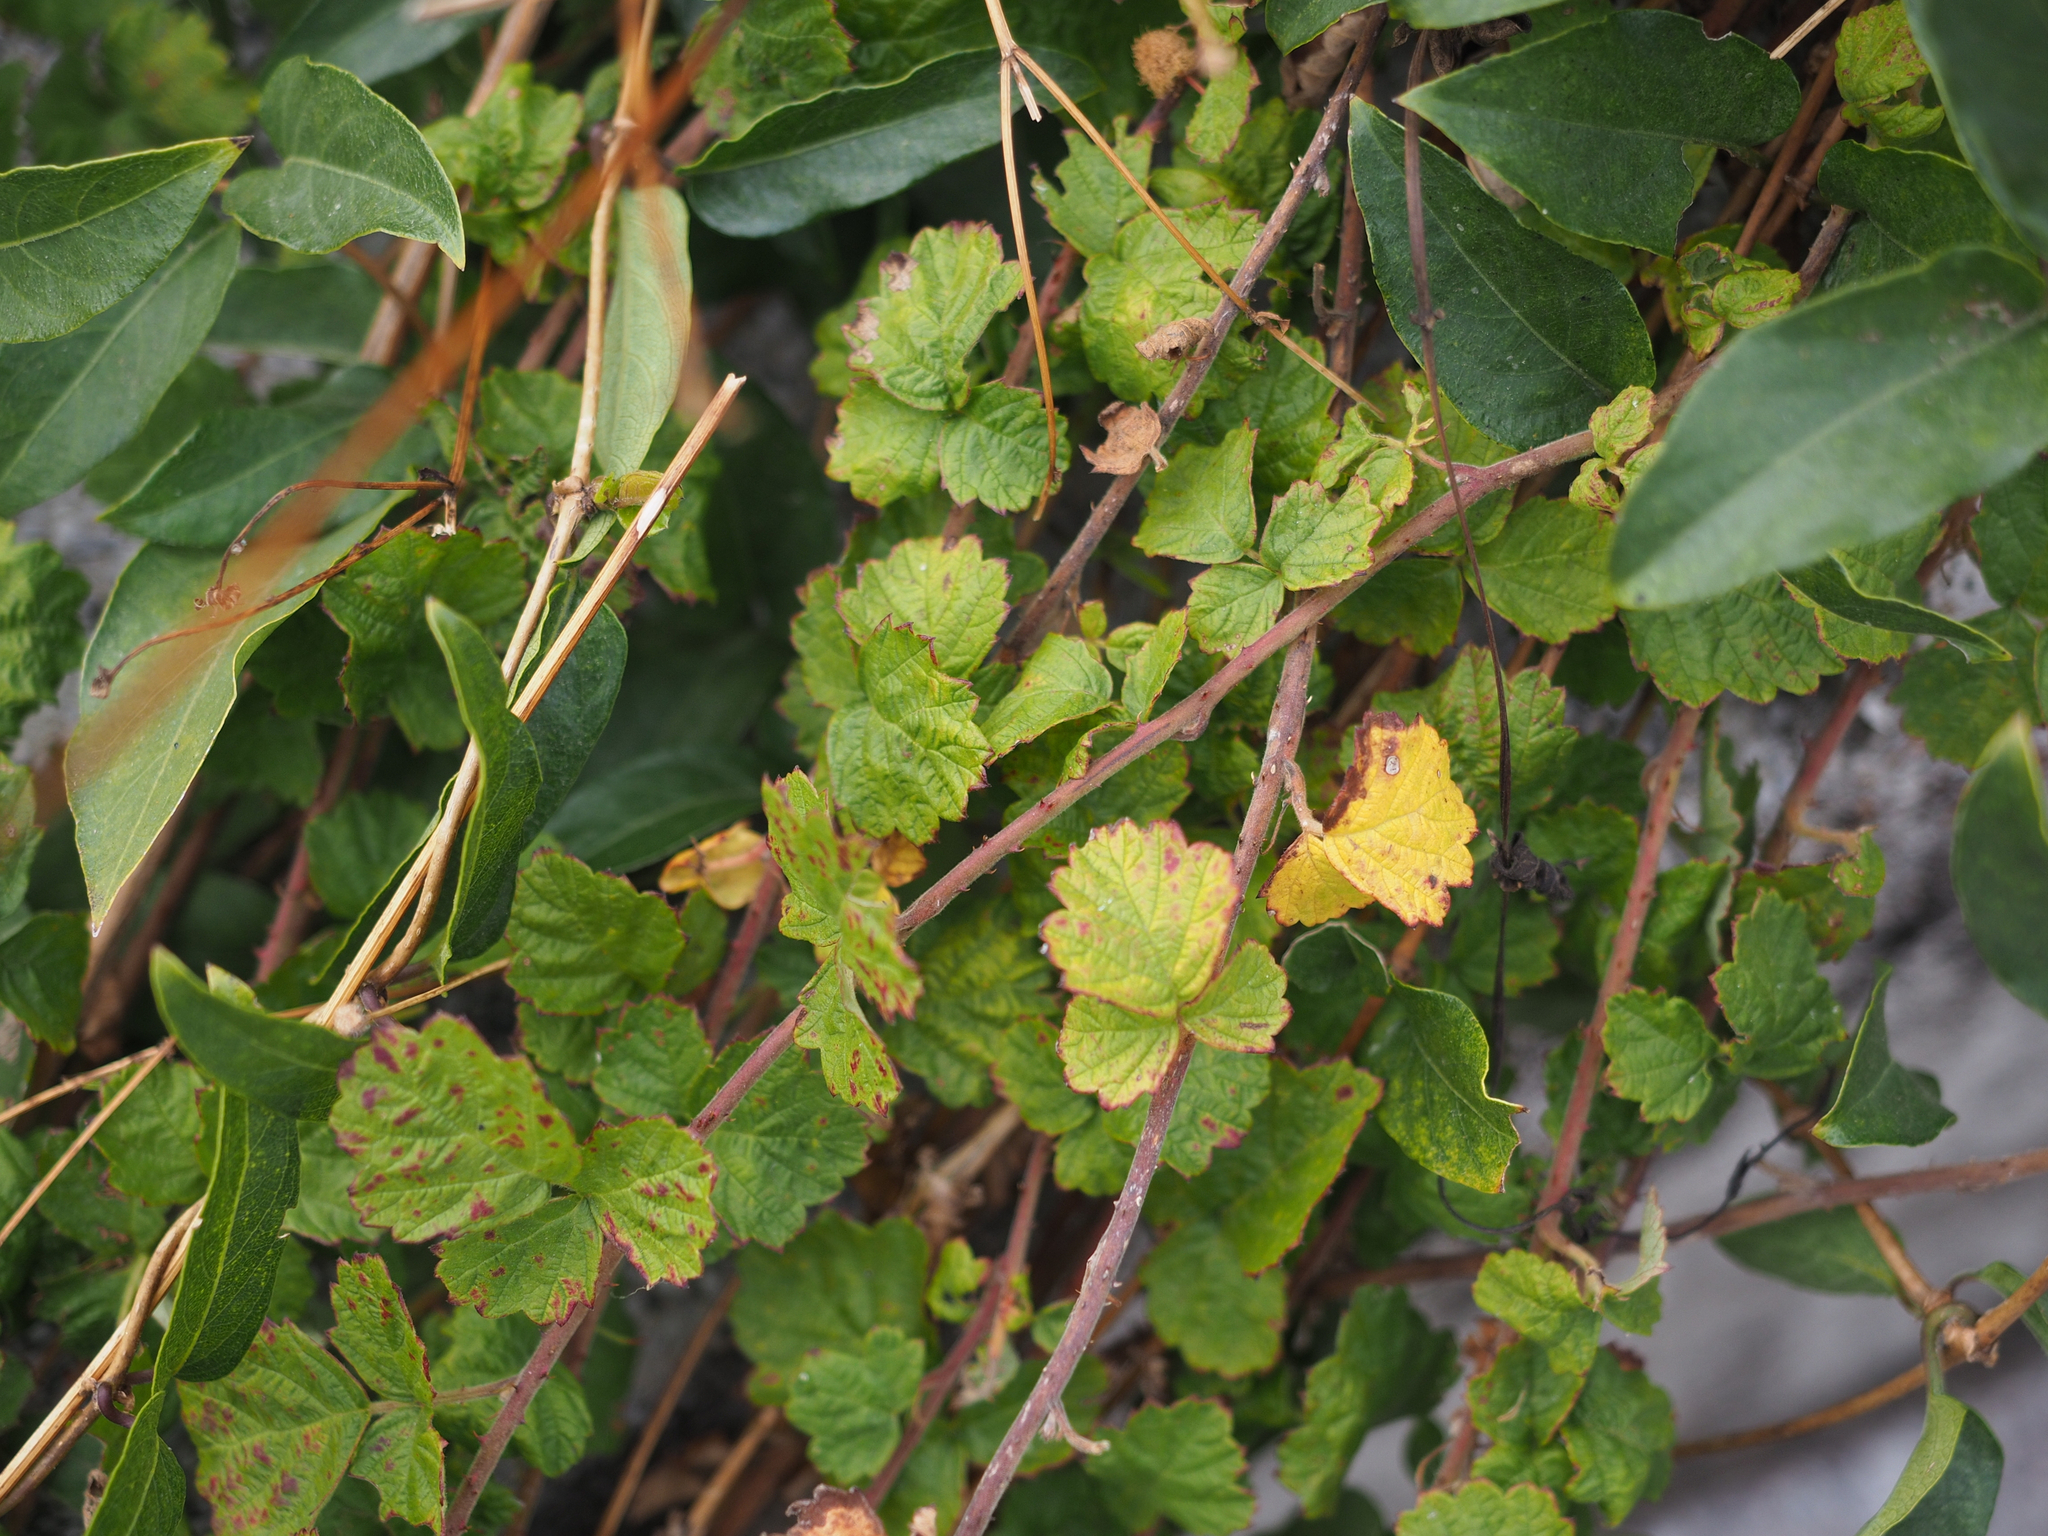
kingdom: Plantae
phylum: Tracheophyta
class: Magnoliopsida
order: Rosales
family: Rosaceae
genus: Rubus
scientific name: Rubus parvifolius
